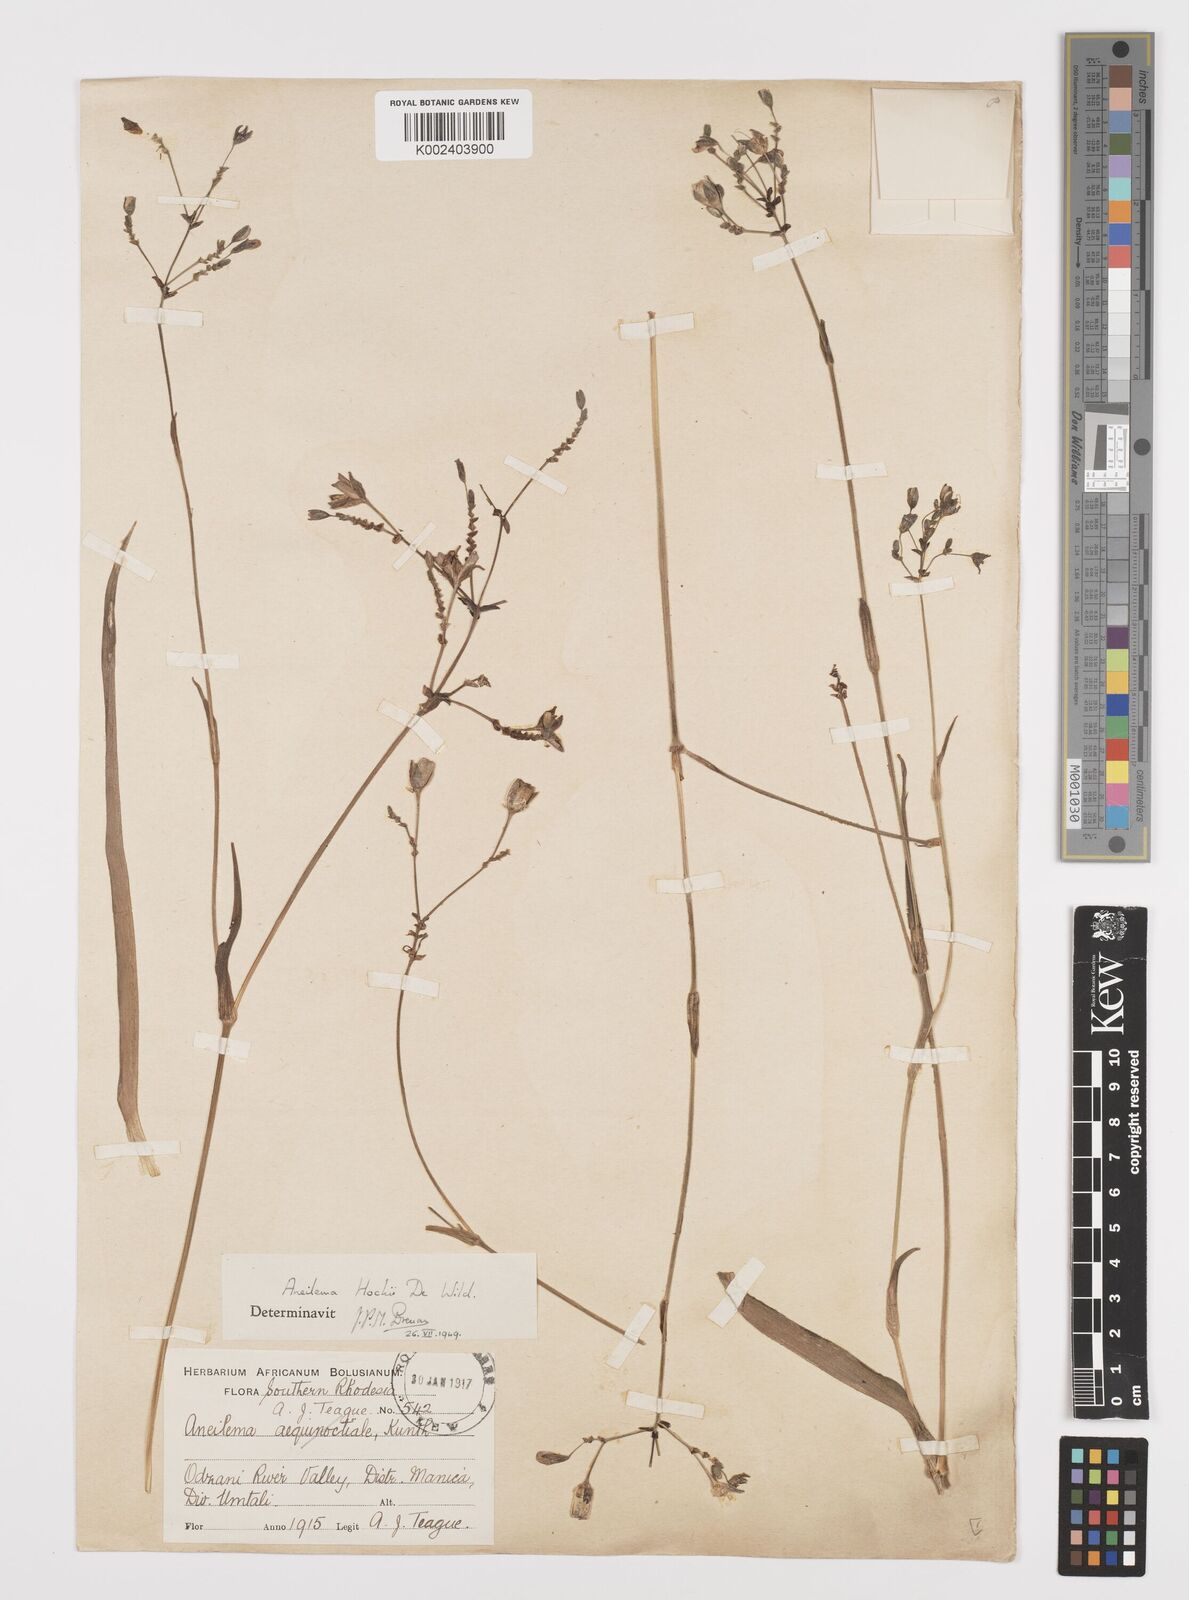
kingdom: Plantae
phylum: Tracheophyta
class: Liliopsida
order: Commelinales
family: Commelinaceae
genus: Aneilema
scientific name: Aneilema hockii
